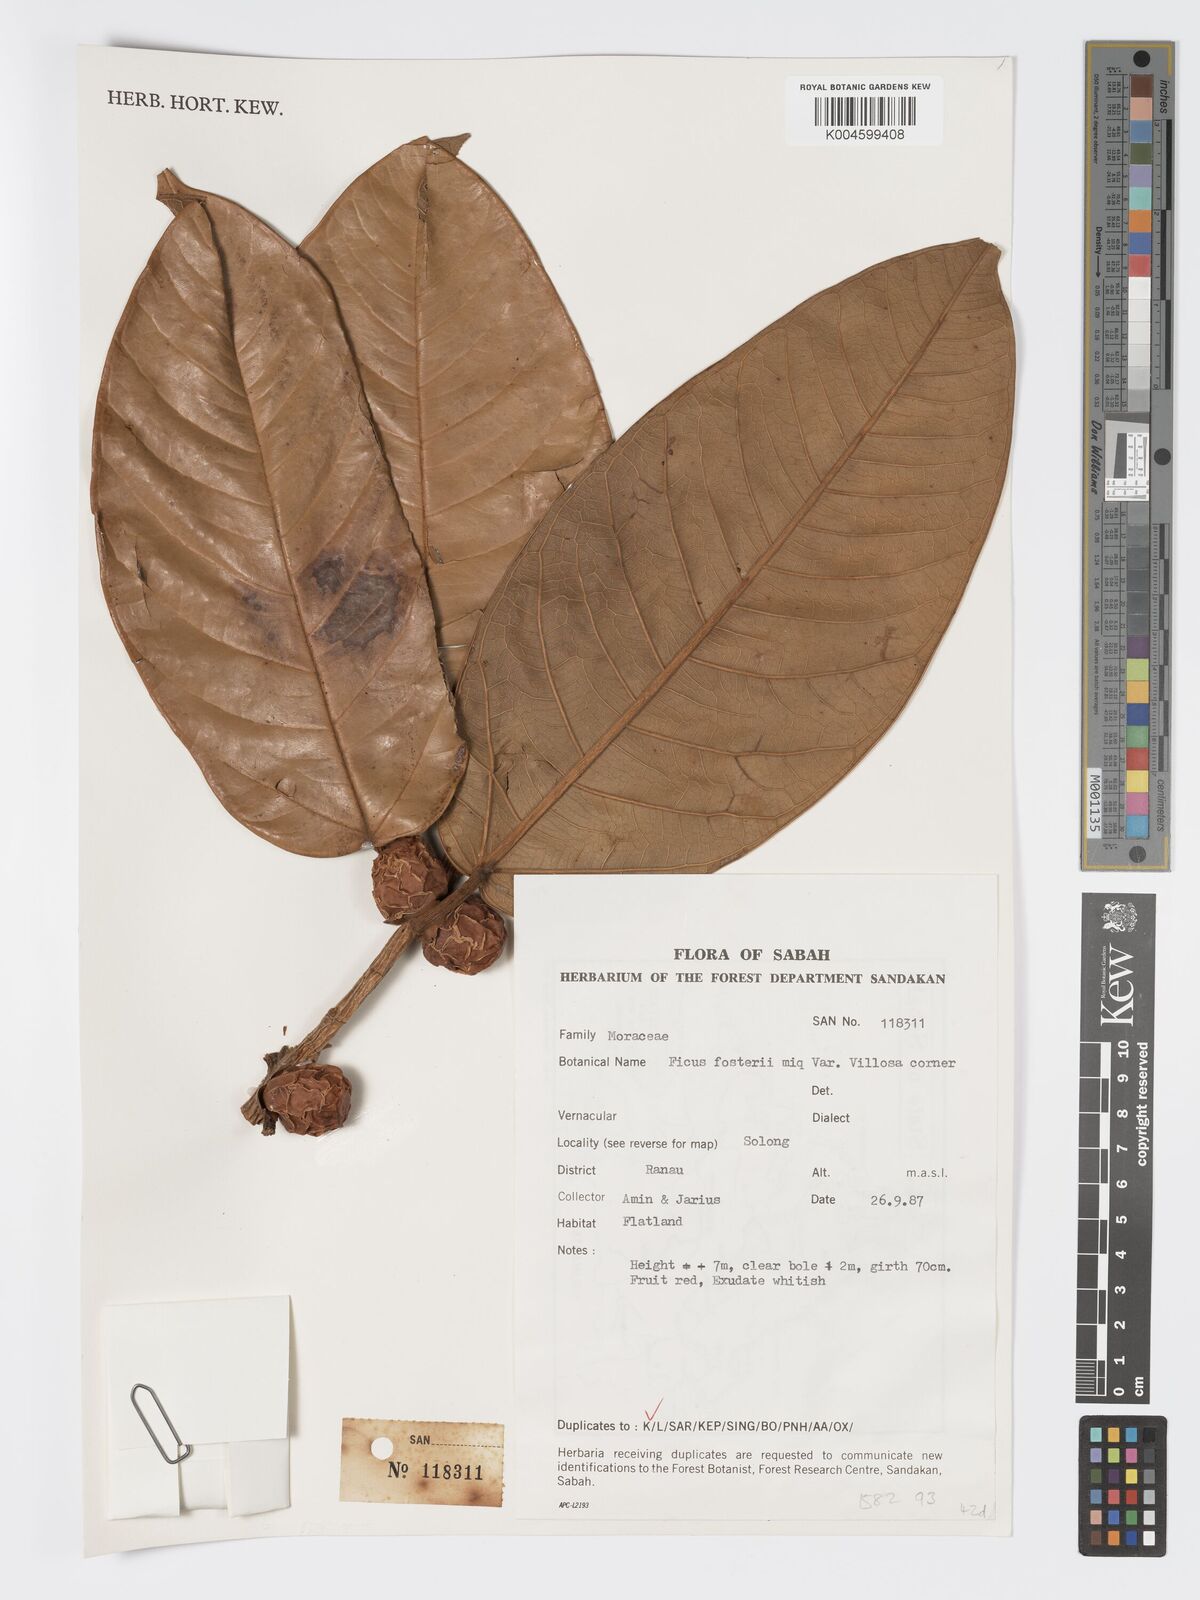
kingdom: Plantae
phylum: Tracheophyta
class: Magnoliopsida
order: Rosales
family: Moraceae
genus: Ficus
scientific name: Ficus forstenii
